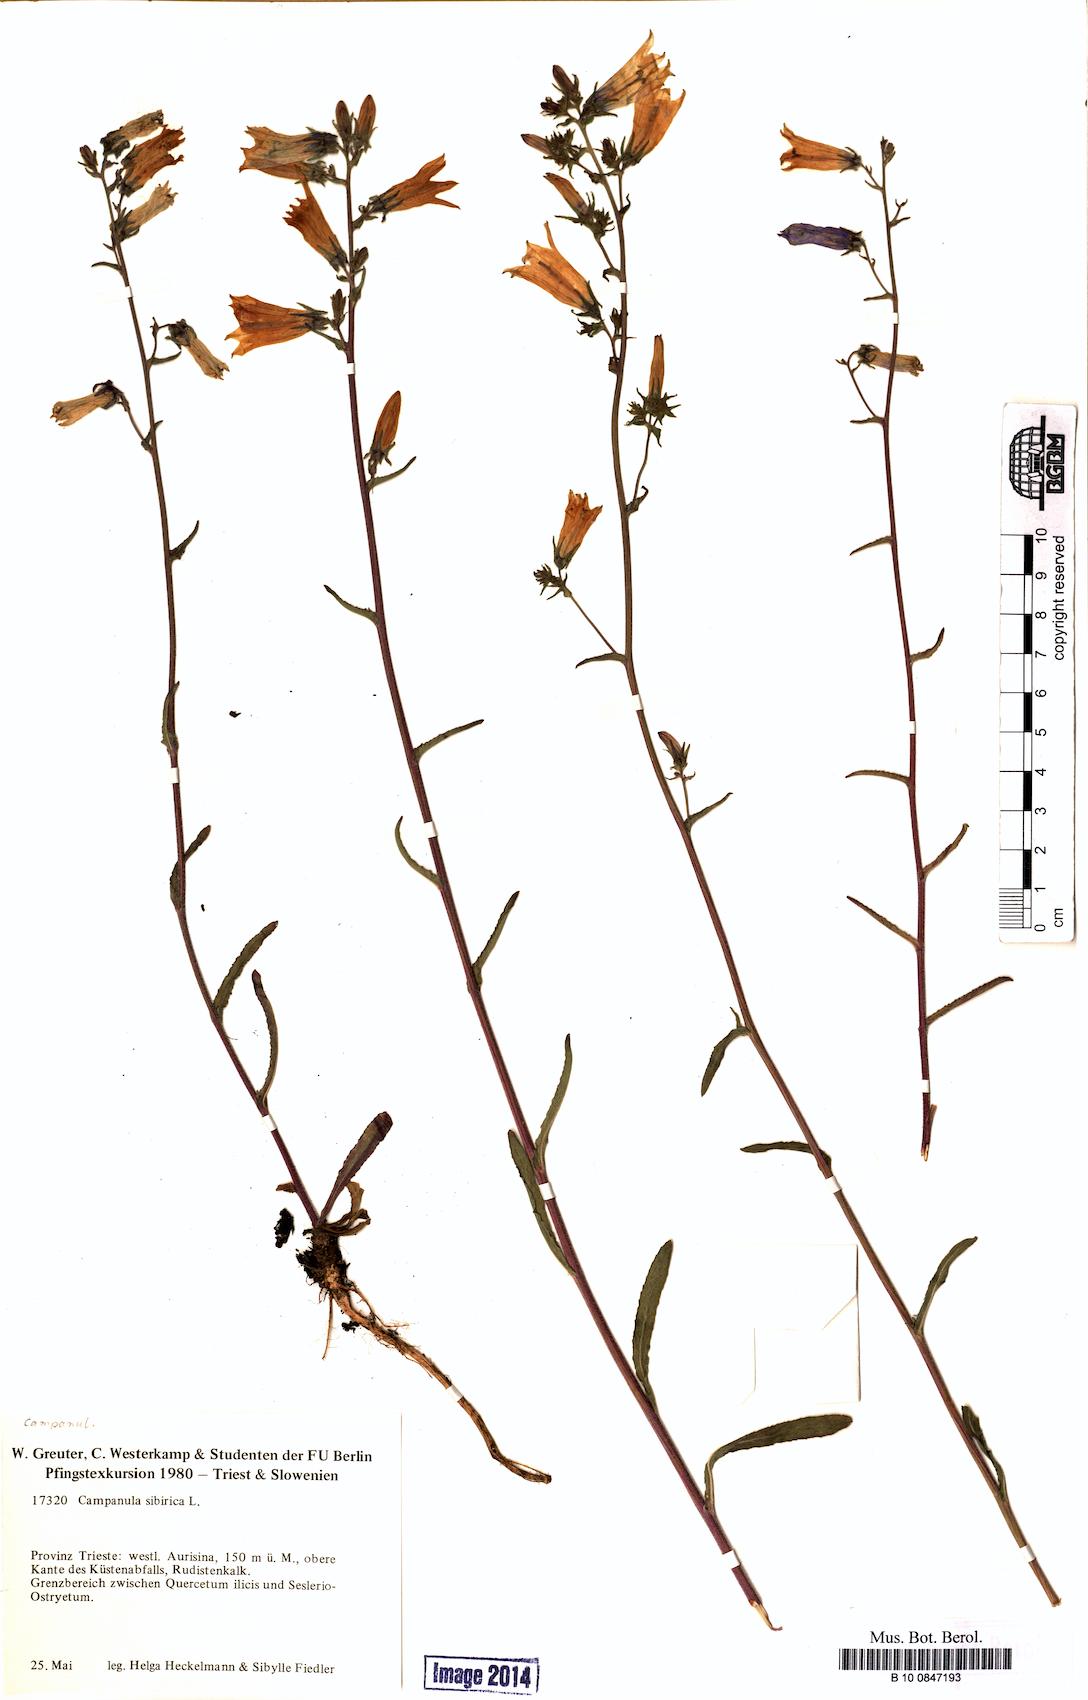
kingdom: Plantae
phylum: Tracheophyta
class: Magnoliopsida
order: Asterales
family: Campanulaceae
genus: Campanula
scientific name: Campanula sibirica
